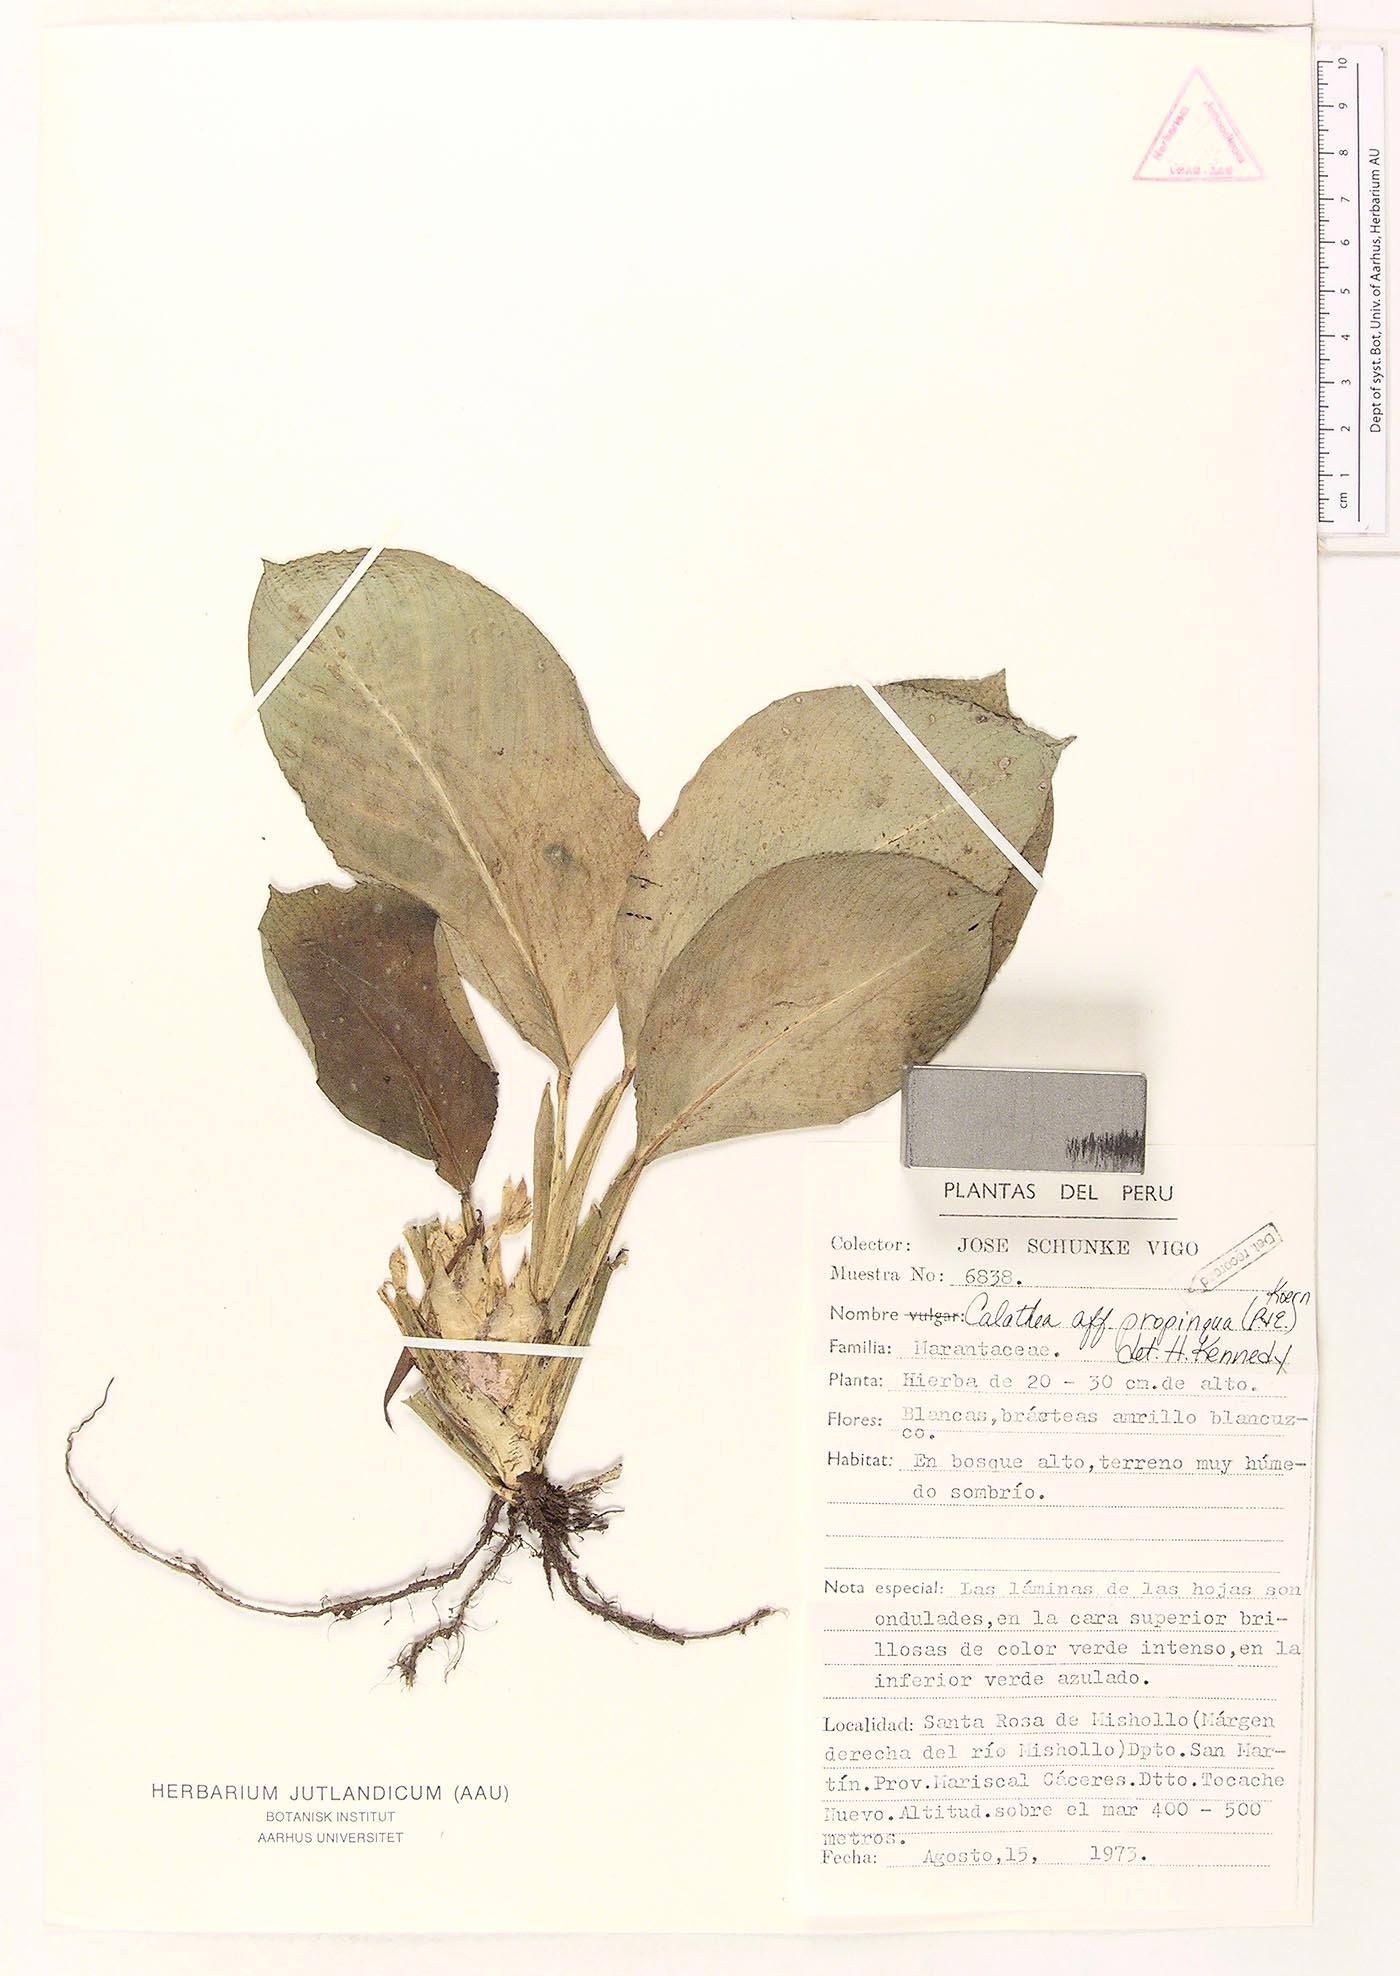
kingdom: Plantae
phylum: Tracheophyta
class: Liliopsida
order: Zingiberales
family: Marantaceae
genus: Goeppertia
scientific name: Goeppertia propinqua
